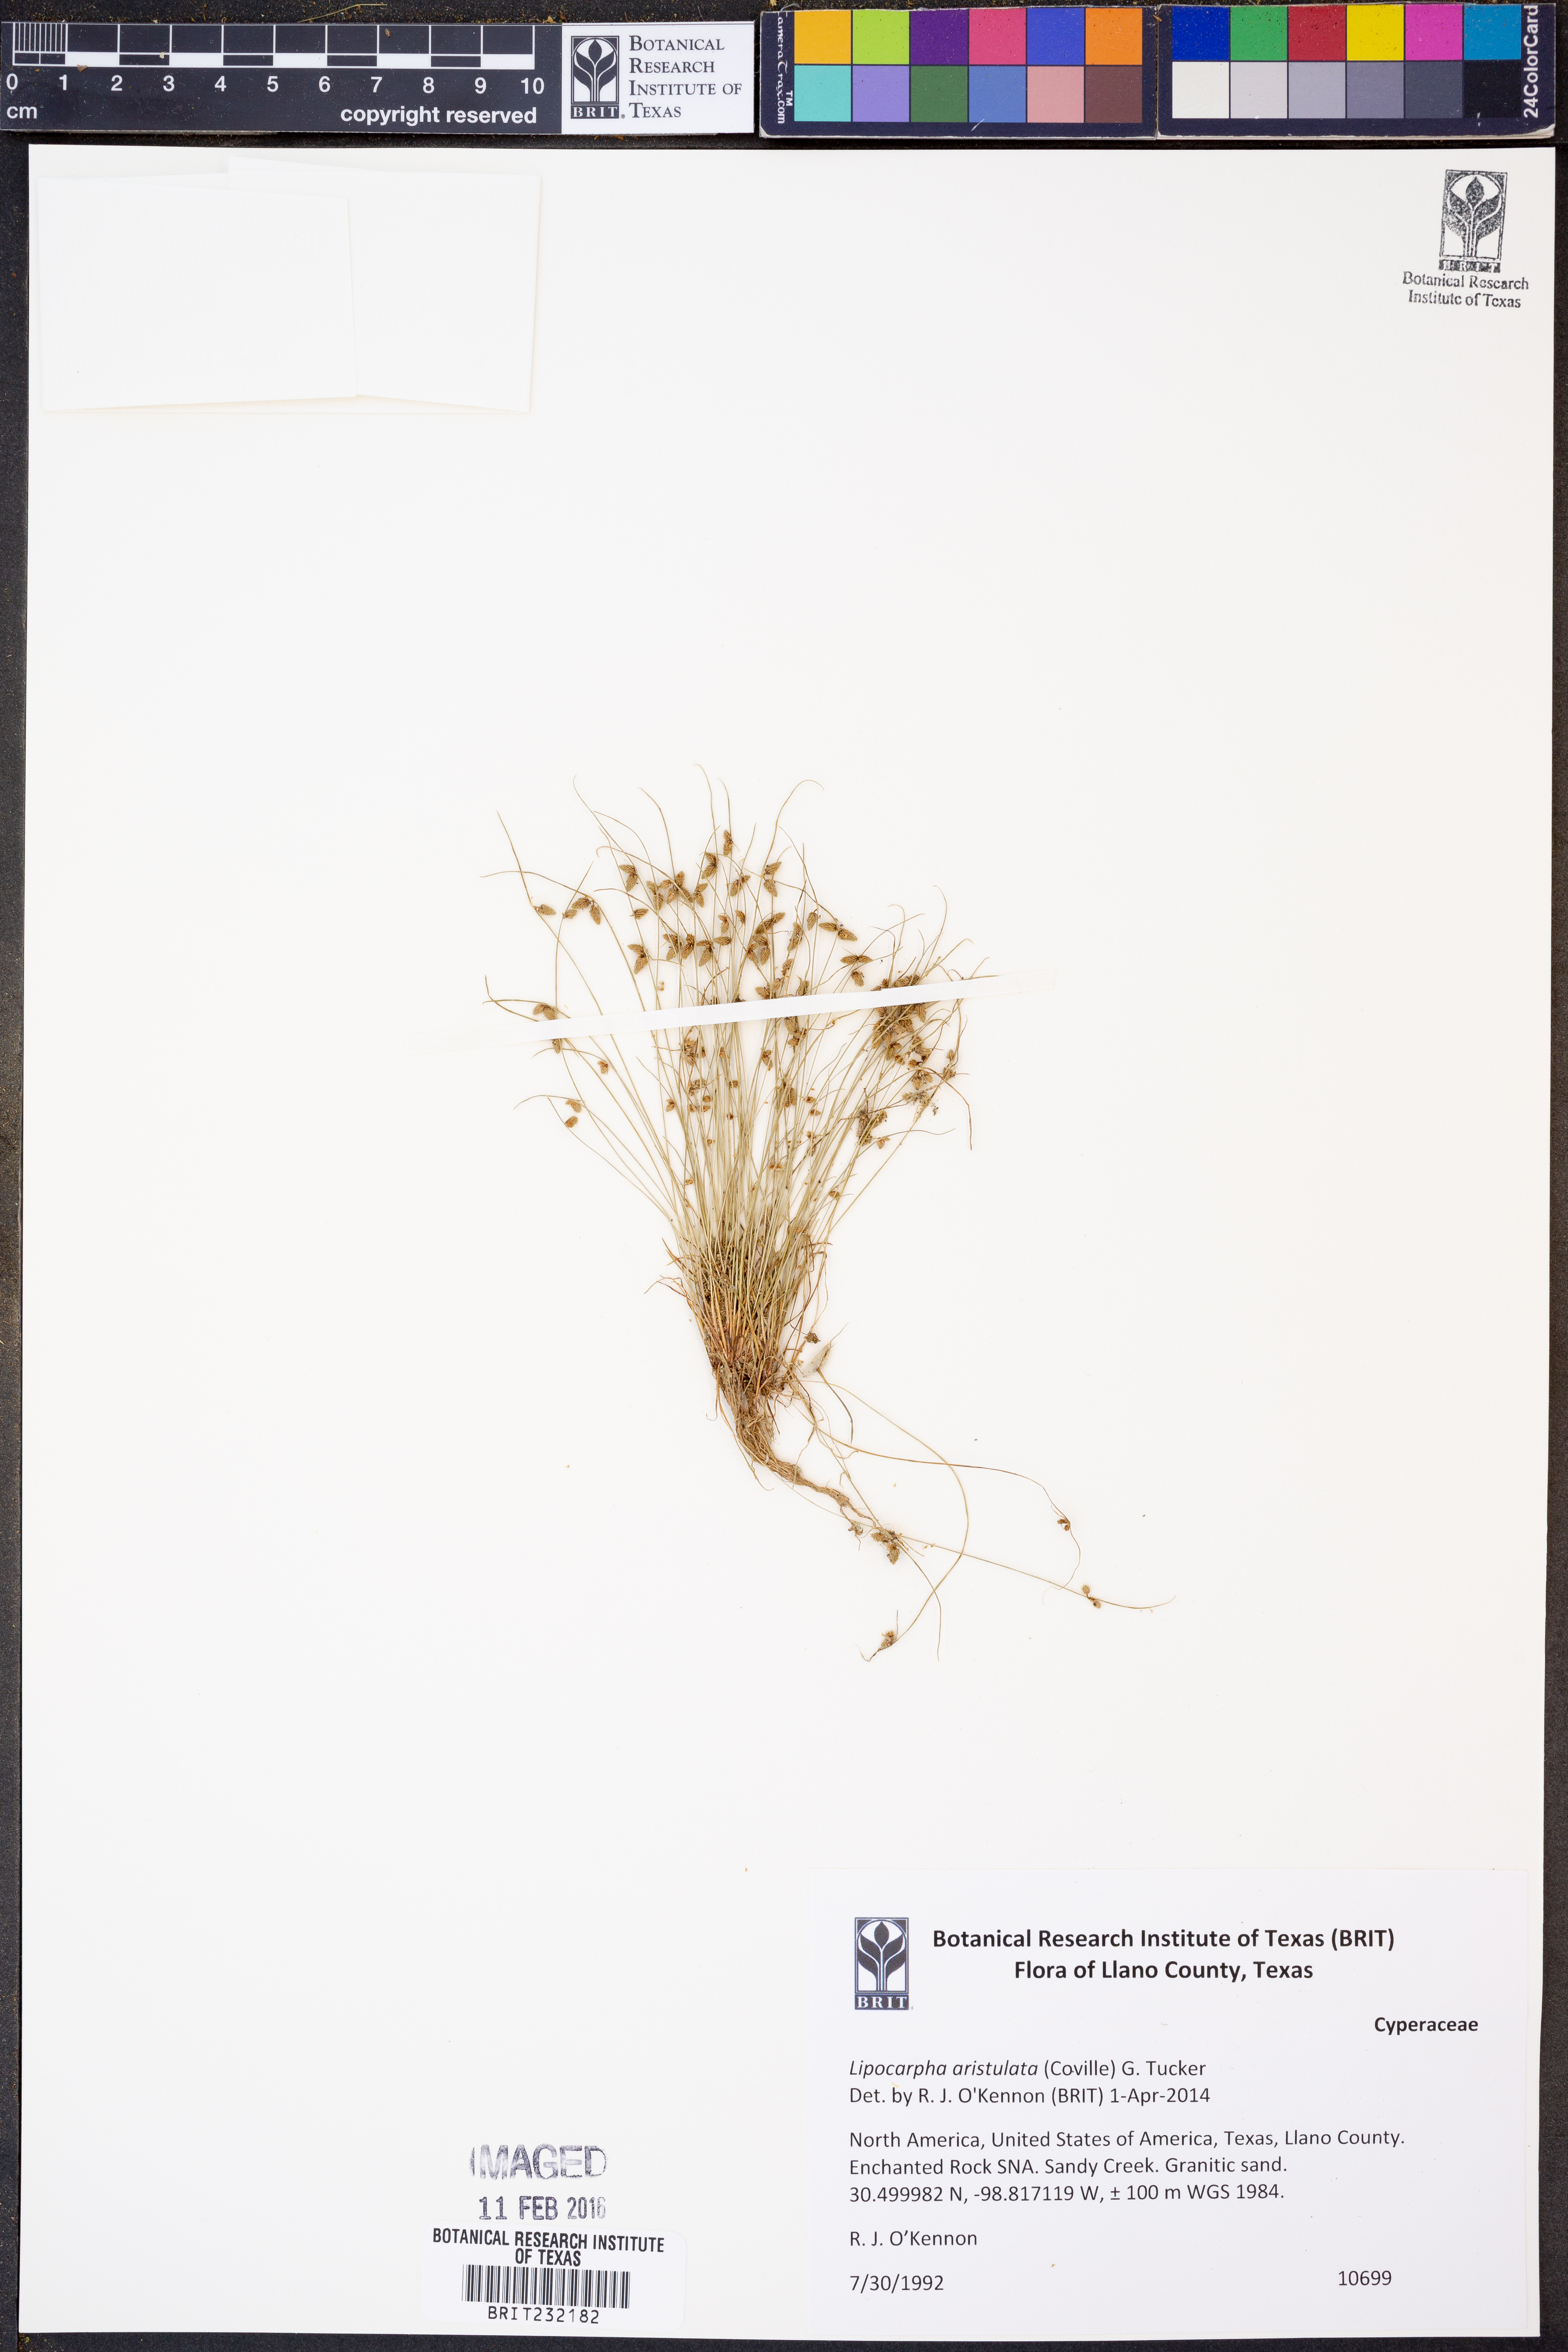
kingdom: Plantae
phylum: Tracheophyta
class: Liliopsida
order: Poales
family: Cyperaceae
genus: Cyperus
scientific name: Cyperus aristulatus
